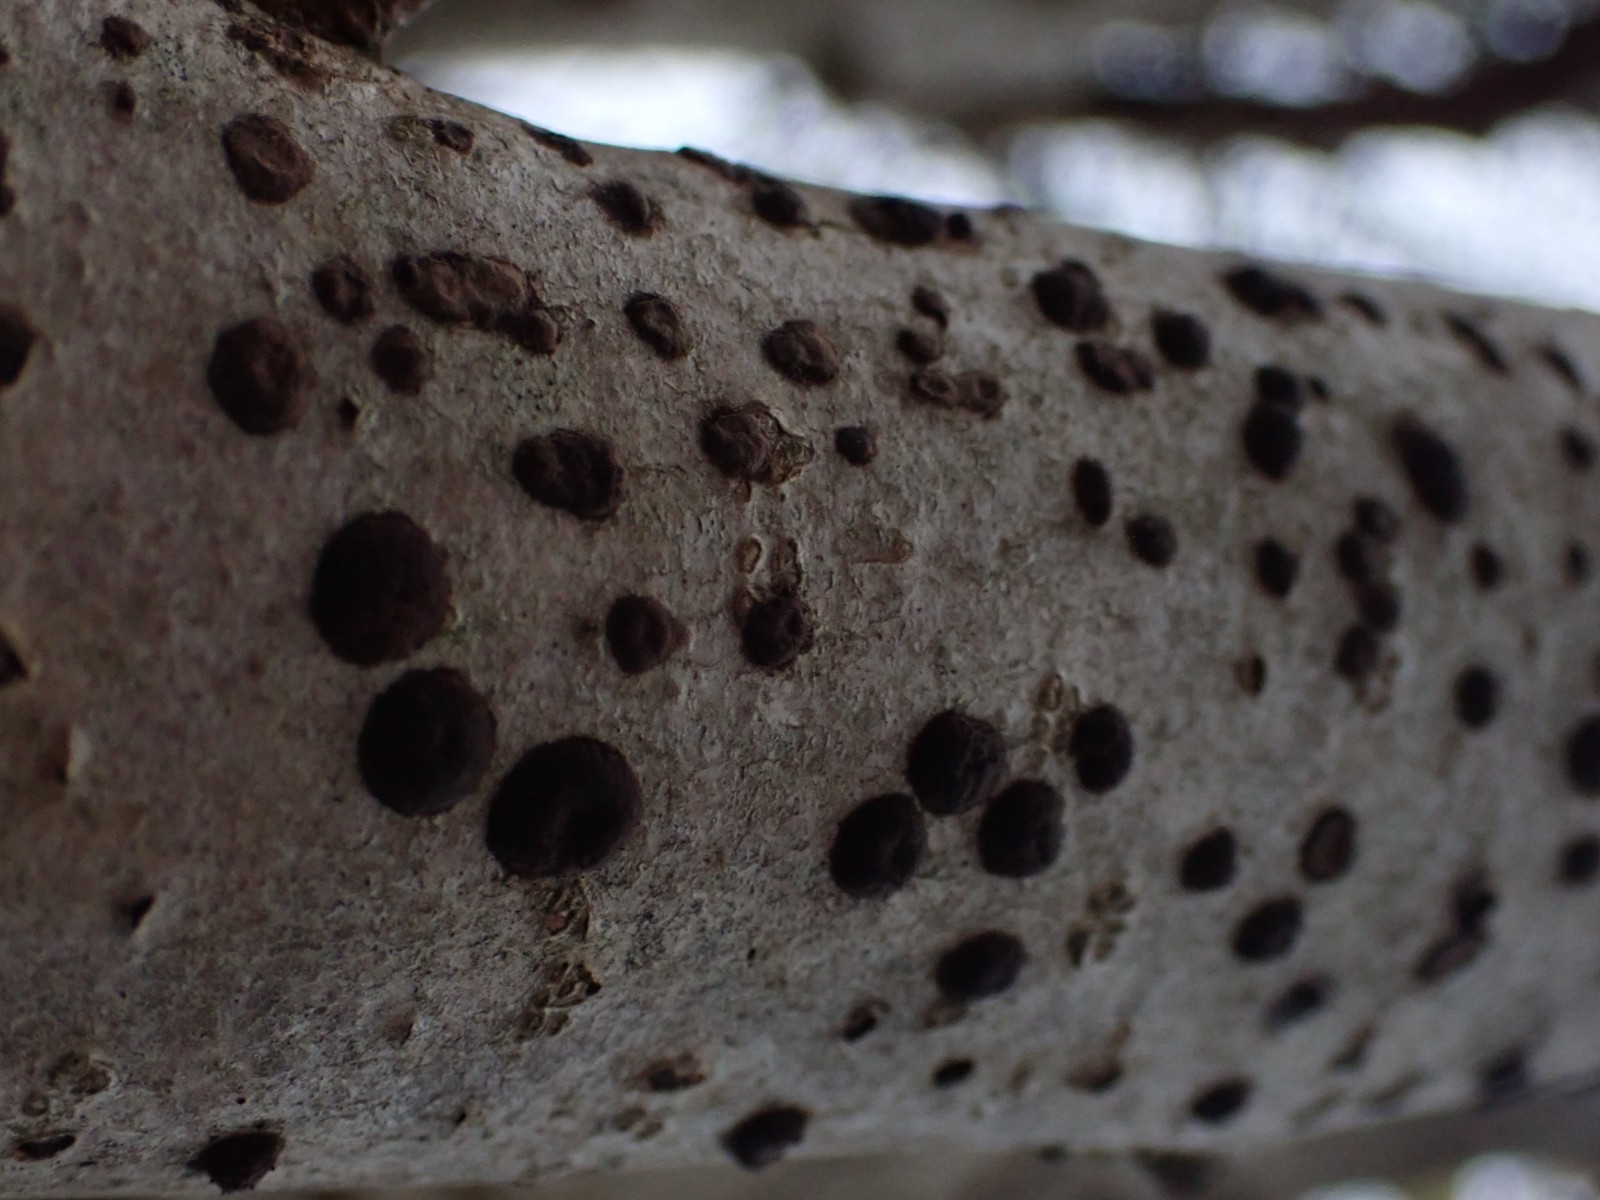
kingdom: Fungi
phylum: Ascomycota
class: Sordariomycetes
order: Xylariales
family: Hypoxylaceae
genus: Hypoxylon
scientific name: Hypoxylon fuscum
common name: kegleformet kulbær
